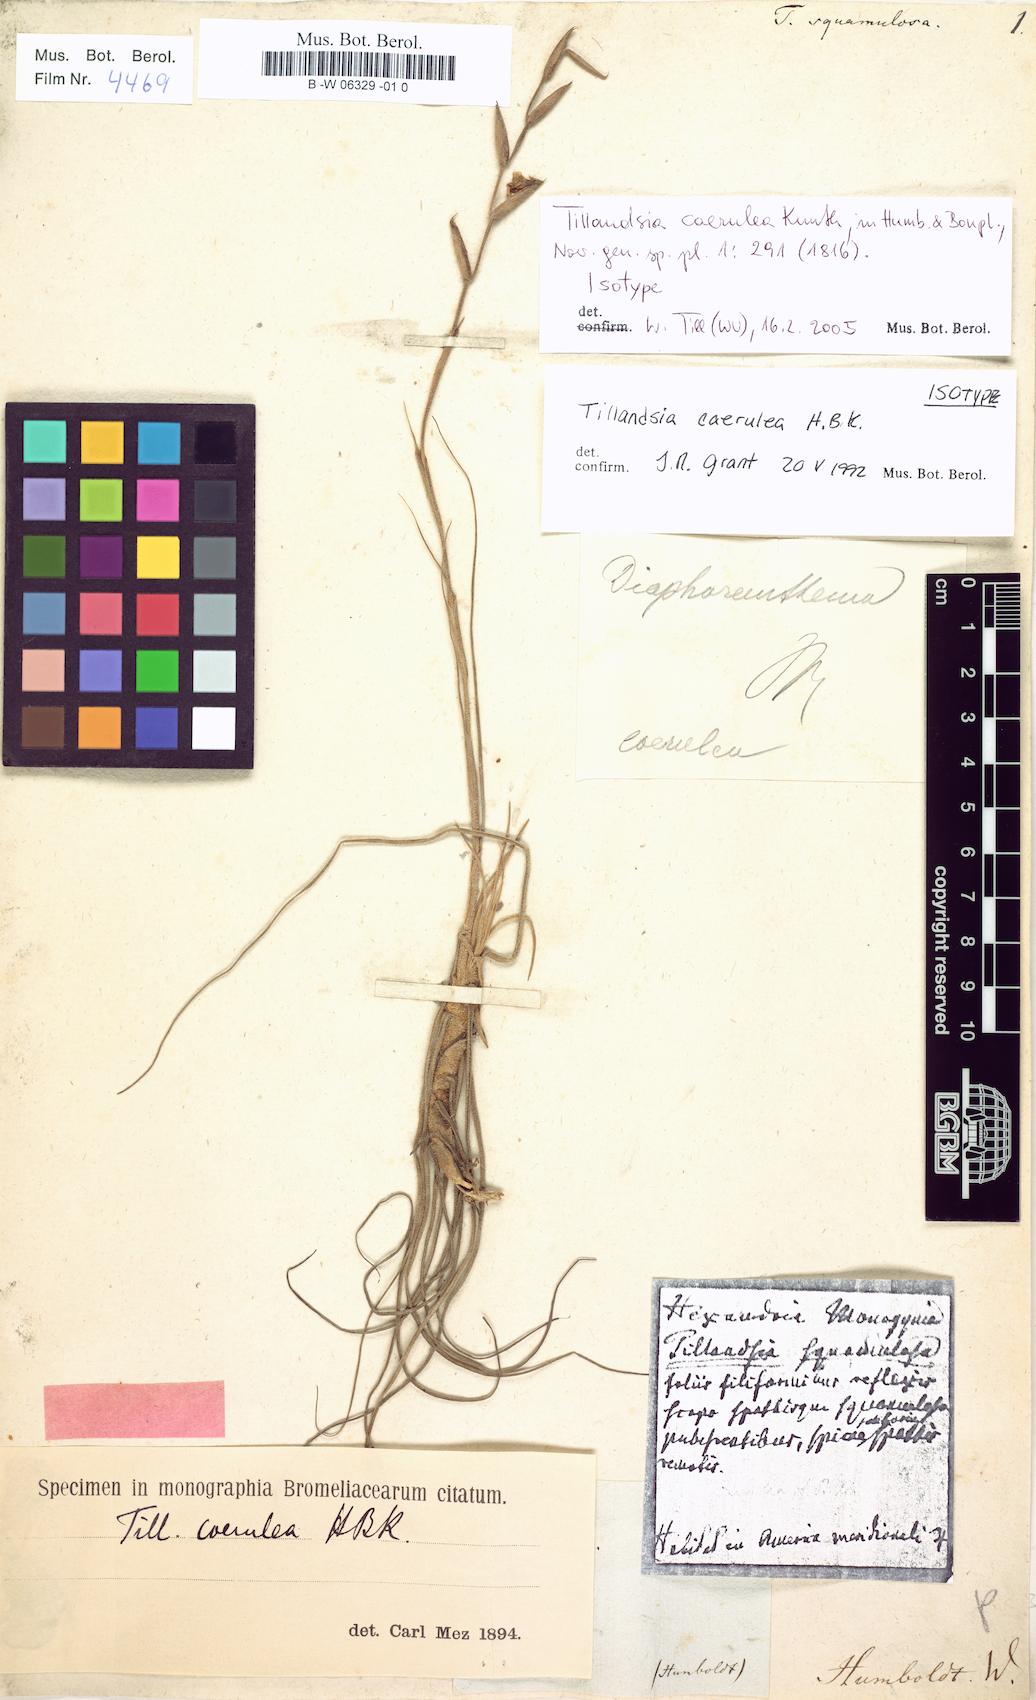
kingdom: Plantae
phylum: Tracheophyta
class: Liliopsida
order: Poales
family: Bromeliaceae
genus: Tillandsia
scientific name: Tillandsia caerulea
